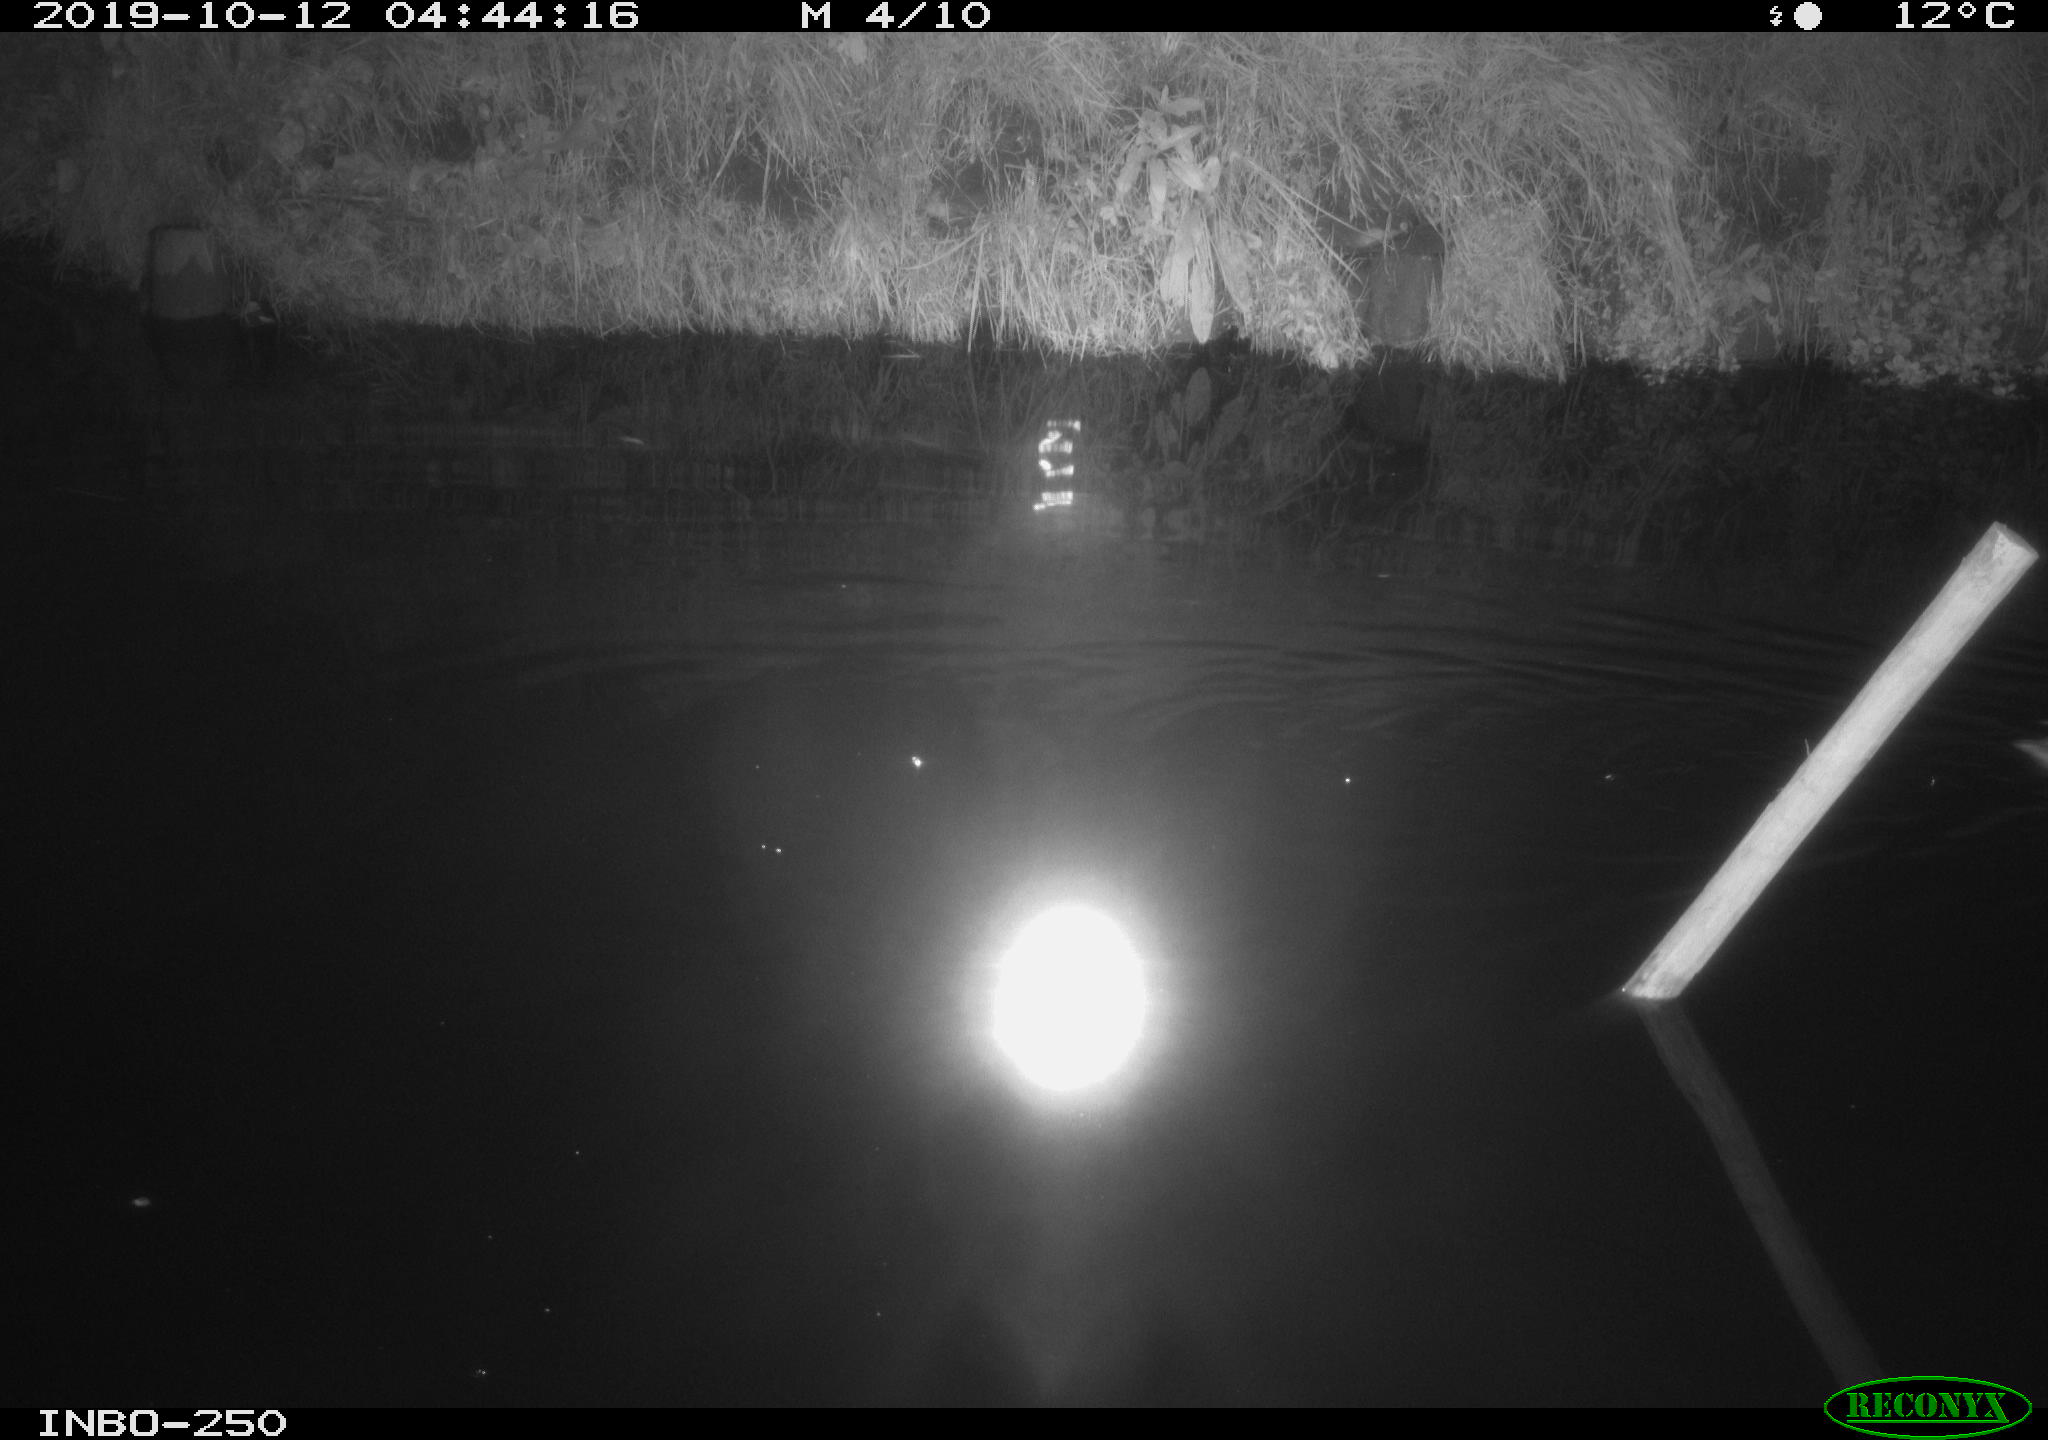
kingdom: Animalia
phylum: Chordata
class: Aves
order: Anseriformes
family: Anatidae
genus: Anas
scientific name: Anas platyrhynchos
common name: Mallard
